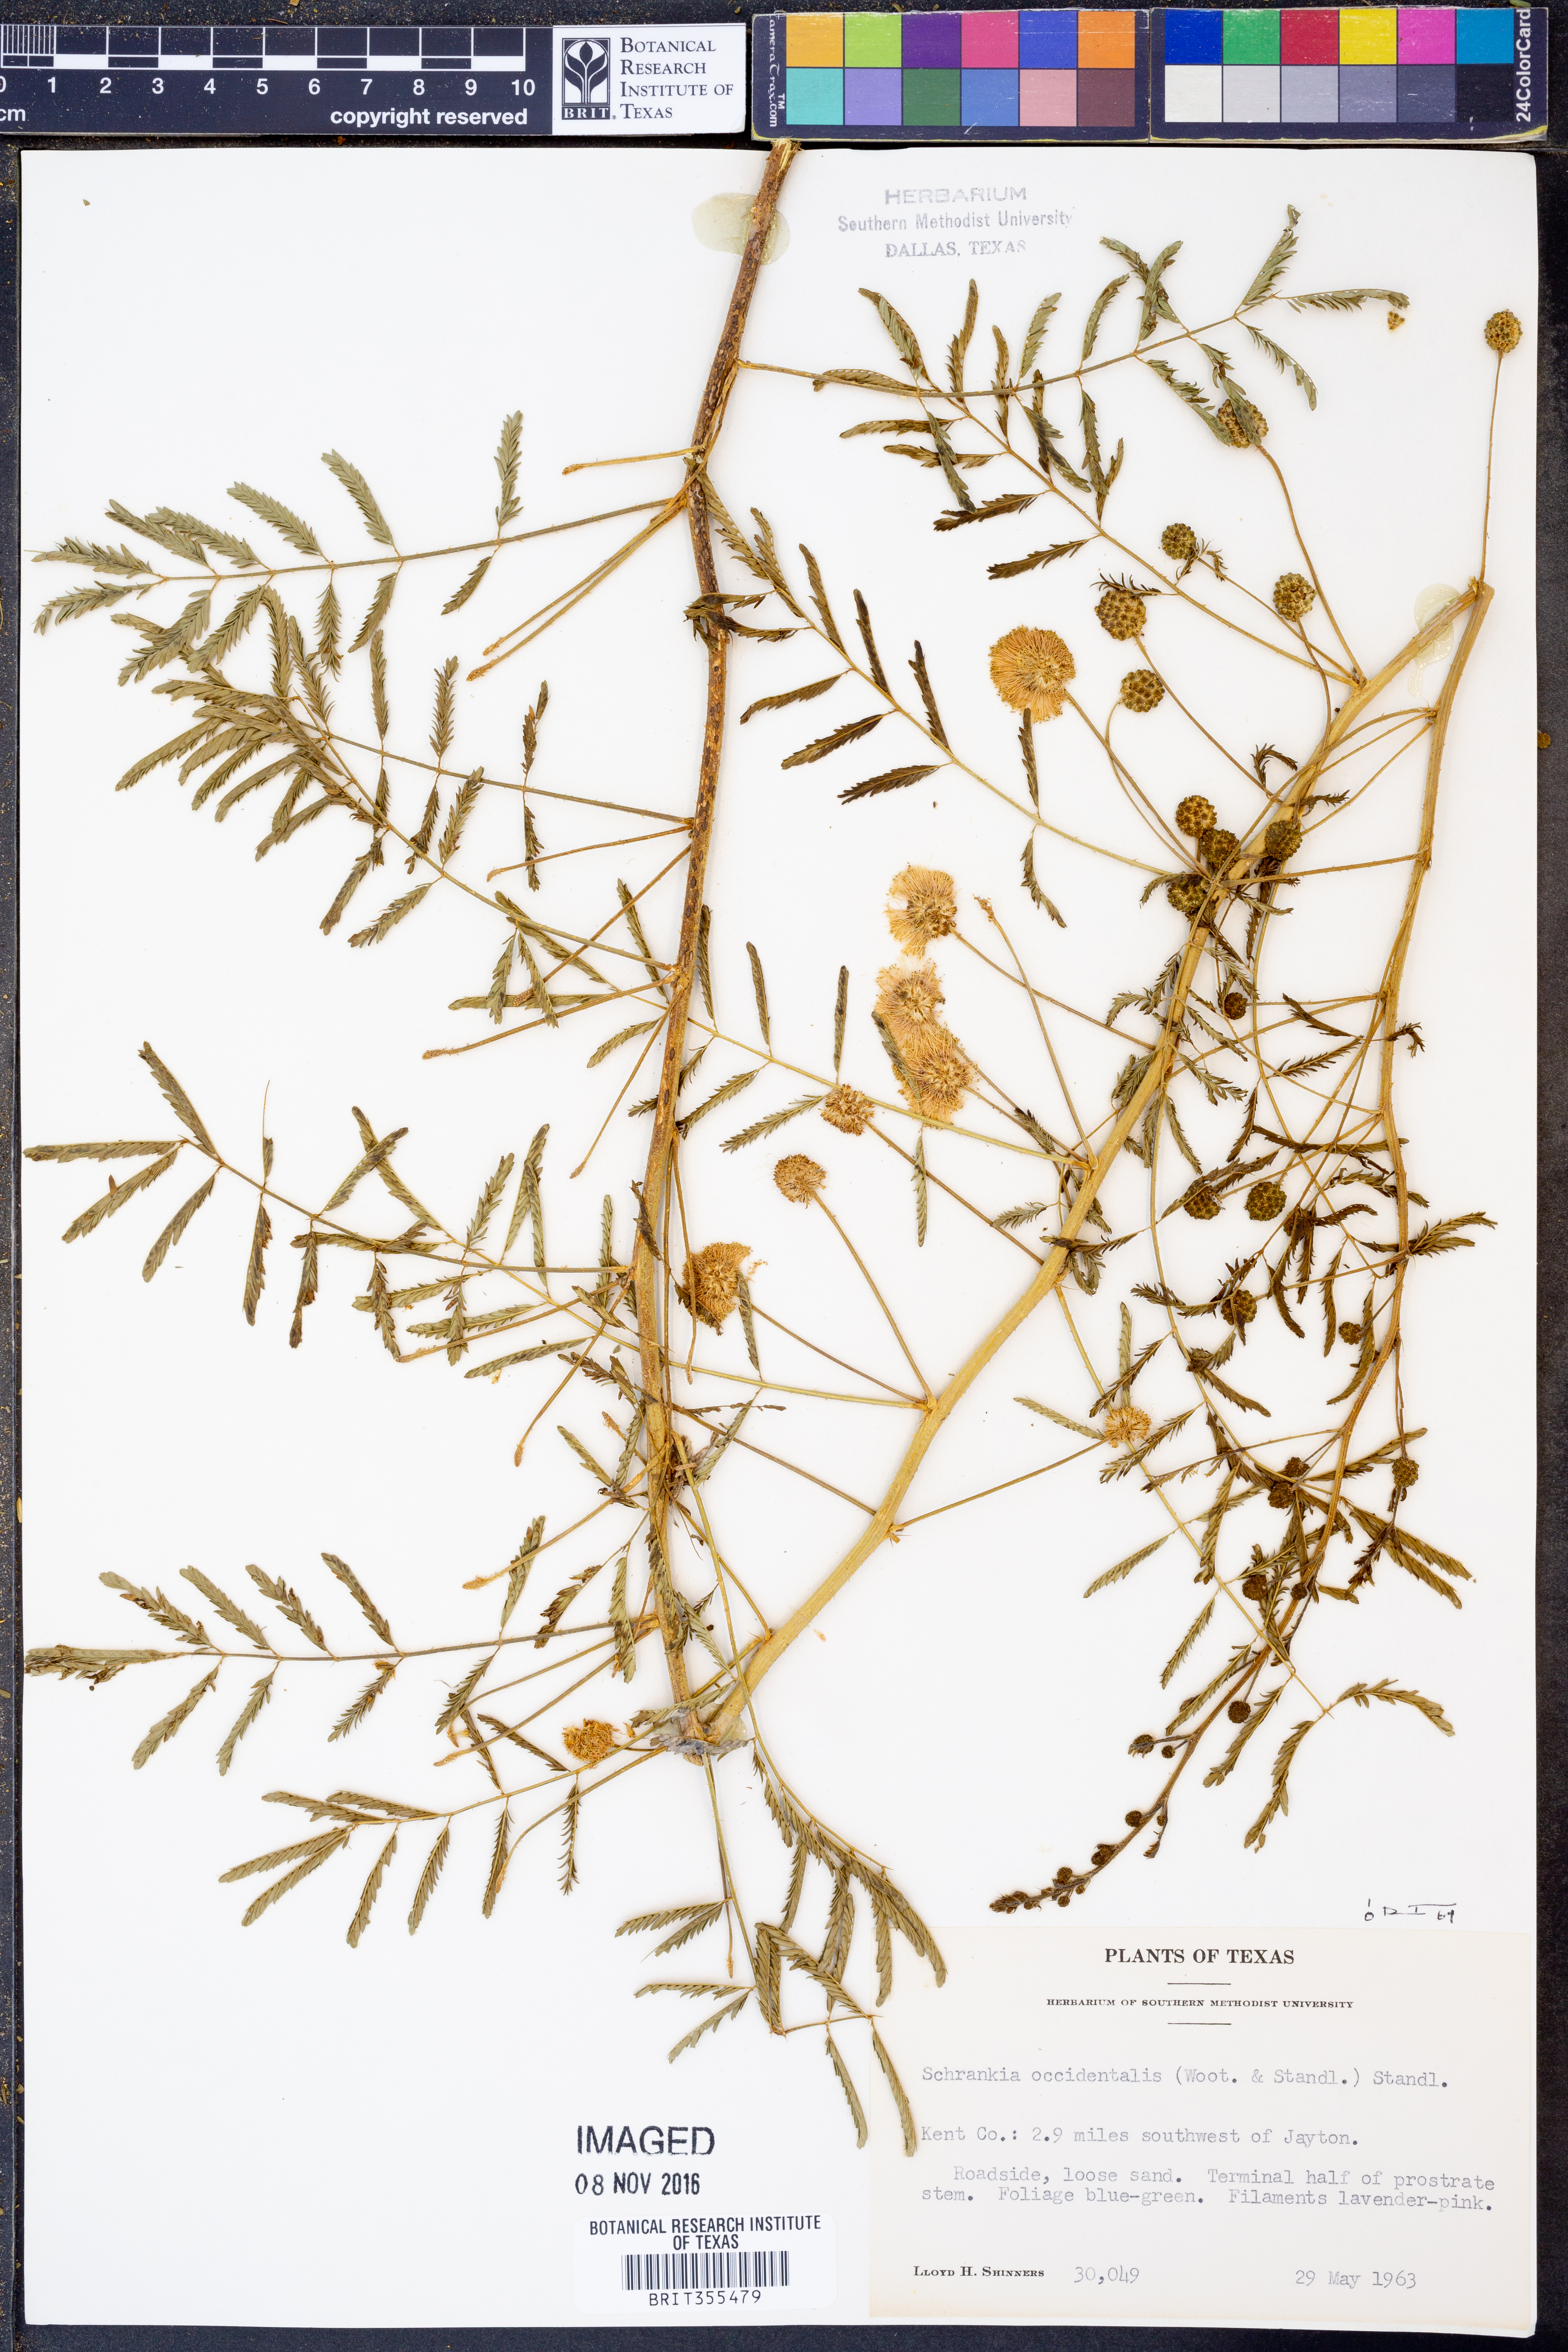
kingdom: Plantae
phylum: Tracheophyta
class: Magnoliopsida
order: Fabales
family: Fabaceae
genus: Mimosa
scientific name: Mimosa quadrivalvis
